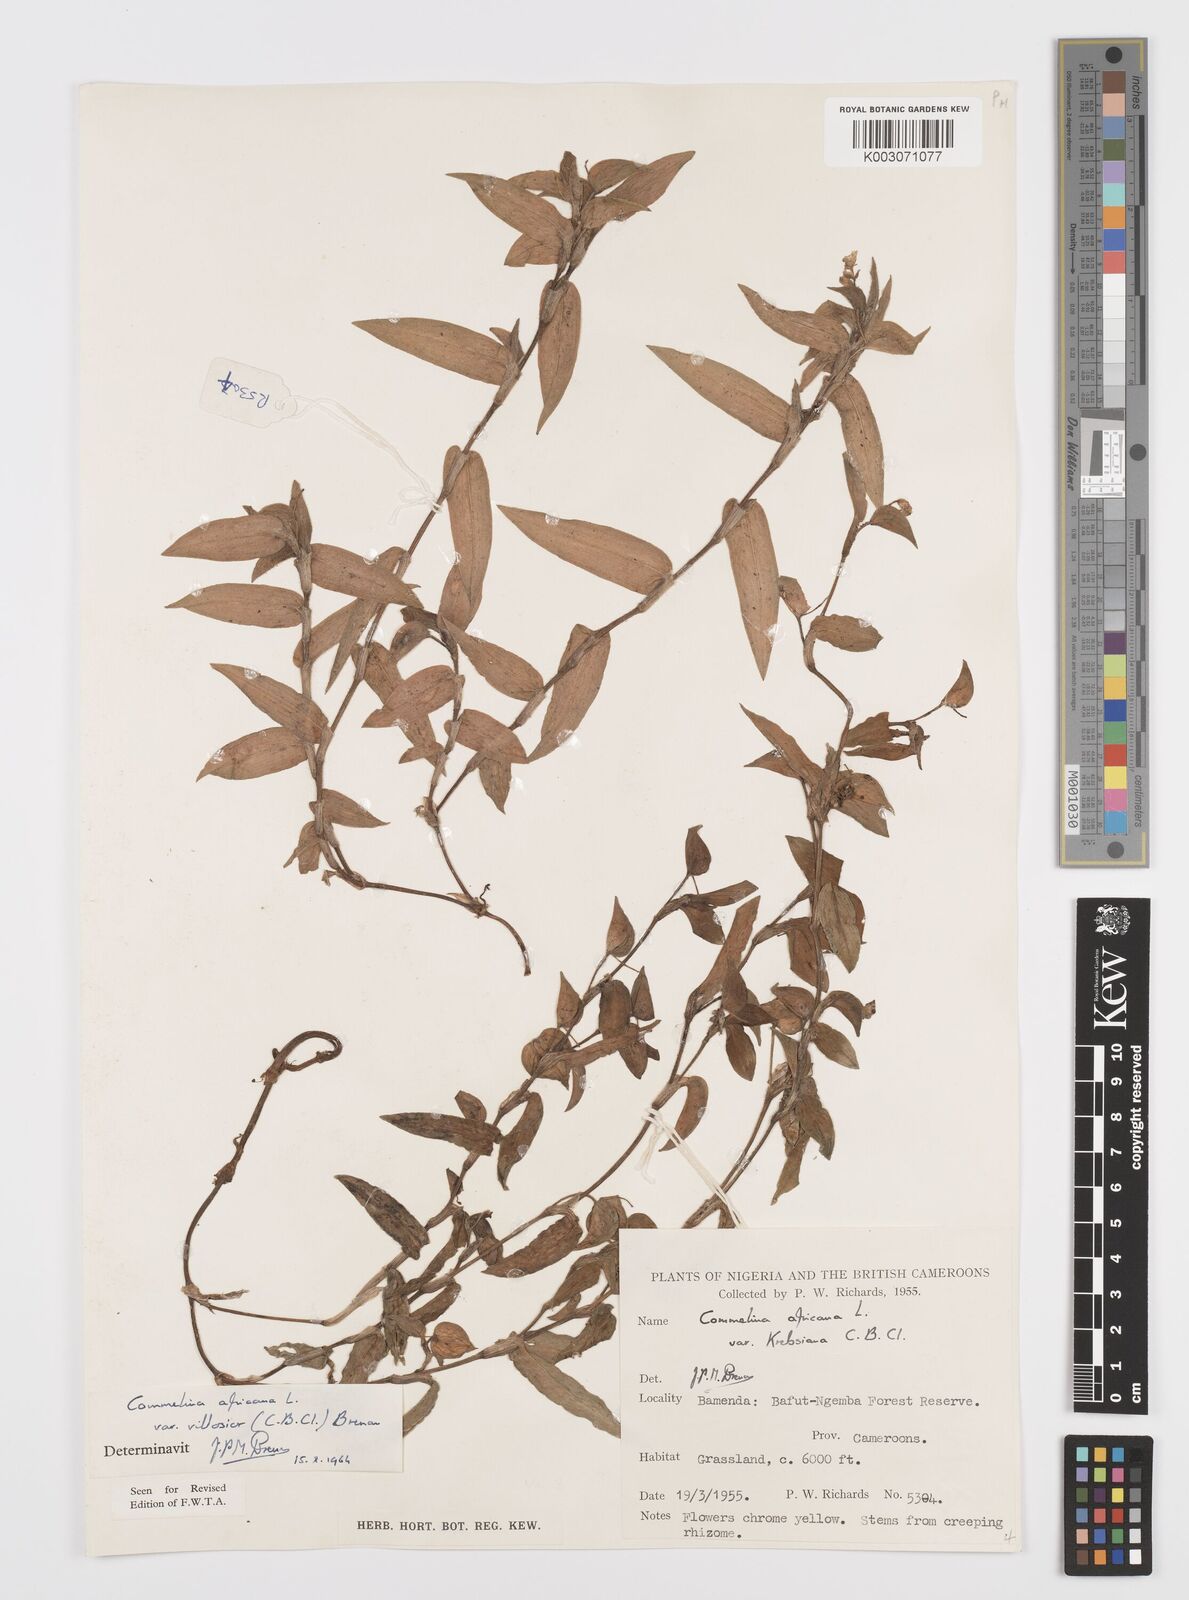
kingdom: Plantae
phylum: Tracheophyta
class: Liliopsida
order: Commelinales
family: Commelinaceae
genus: Commelina
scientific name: Commelina africana
